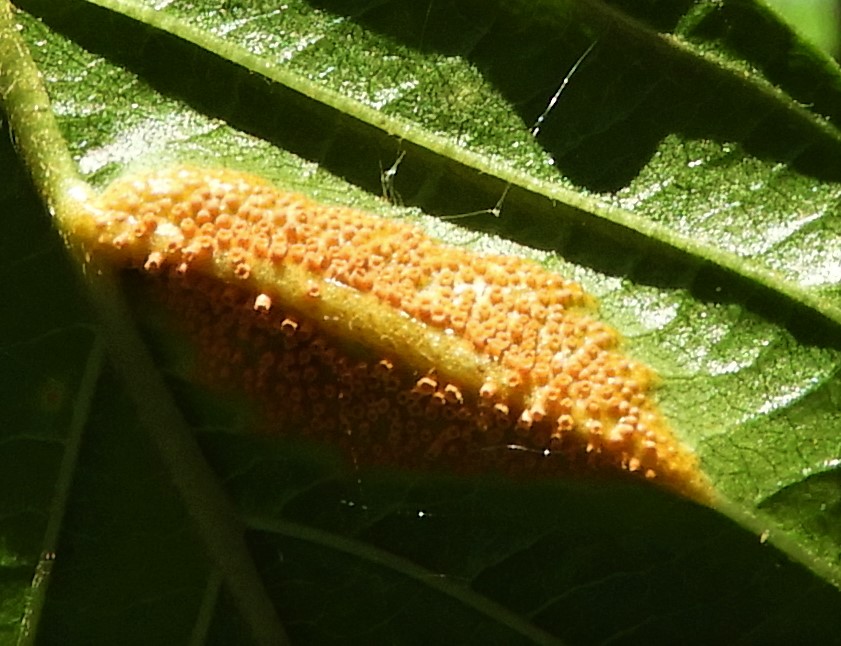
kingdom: Fungi
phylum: Basidiomycota
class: Pucciniomycetes
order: Pucciniales
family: Pucciniaceae
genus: Puccinia
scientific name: Puccinia coronata
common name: Crown rust
